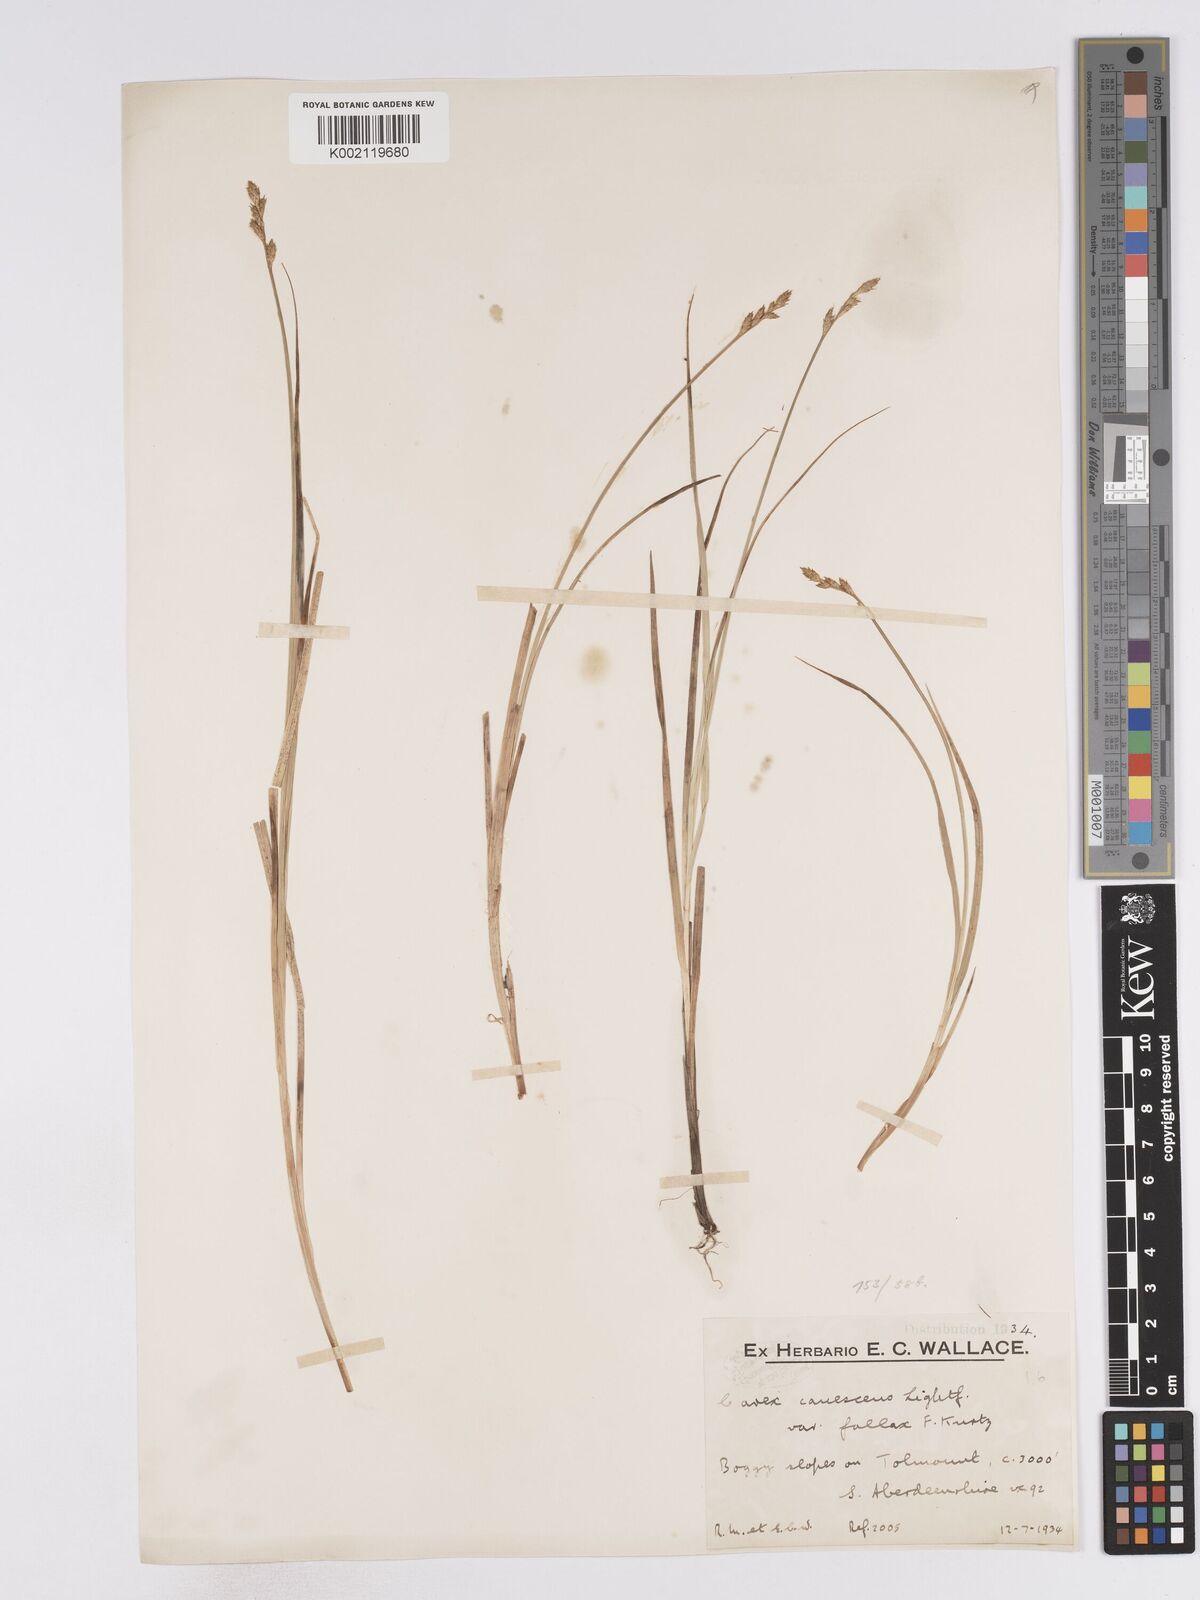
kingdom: Plantae
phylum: Tracheophyta
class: Liliopsida
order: Poales
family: Cyperaceae
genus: Carex
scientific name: Carex curta
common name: White sedge
